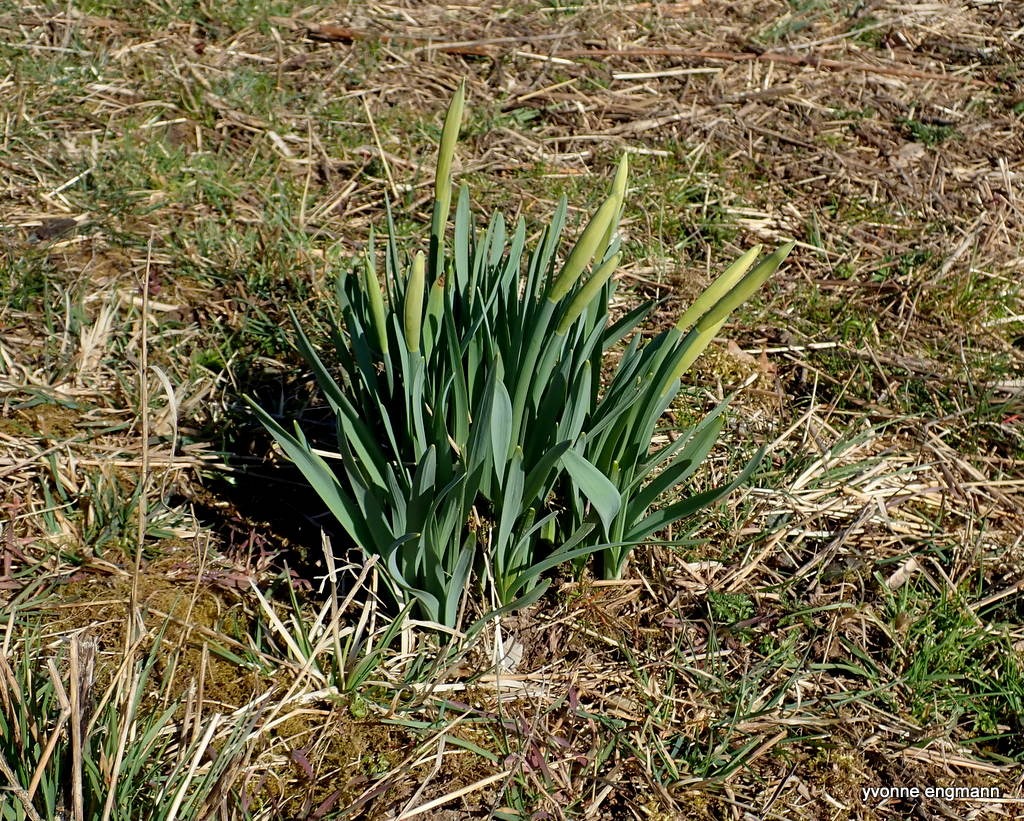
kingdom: Plantae
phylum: Tracheophyta
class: Liliopsida
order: Asparagales
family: Amaryllidaceae
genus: Narcissus
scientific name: Narcissus pseudonarcissus
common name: Påskelilje
